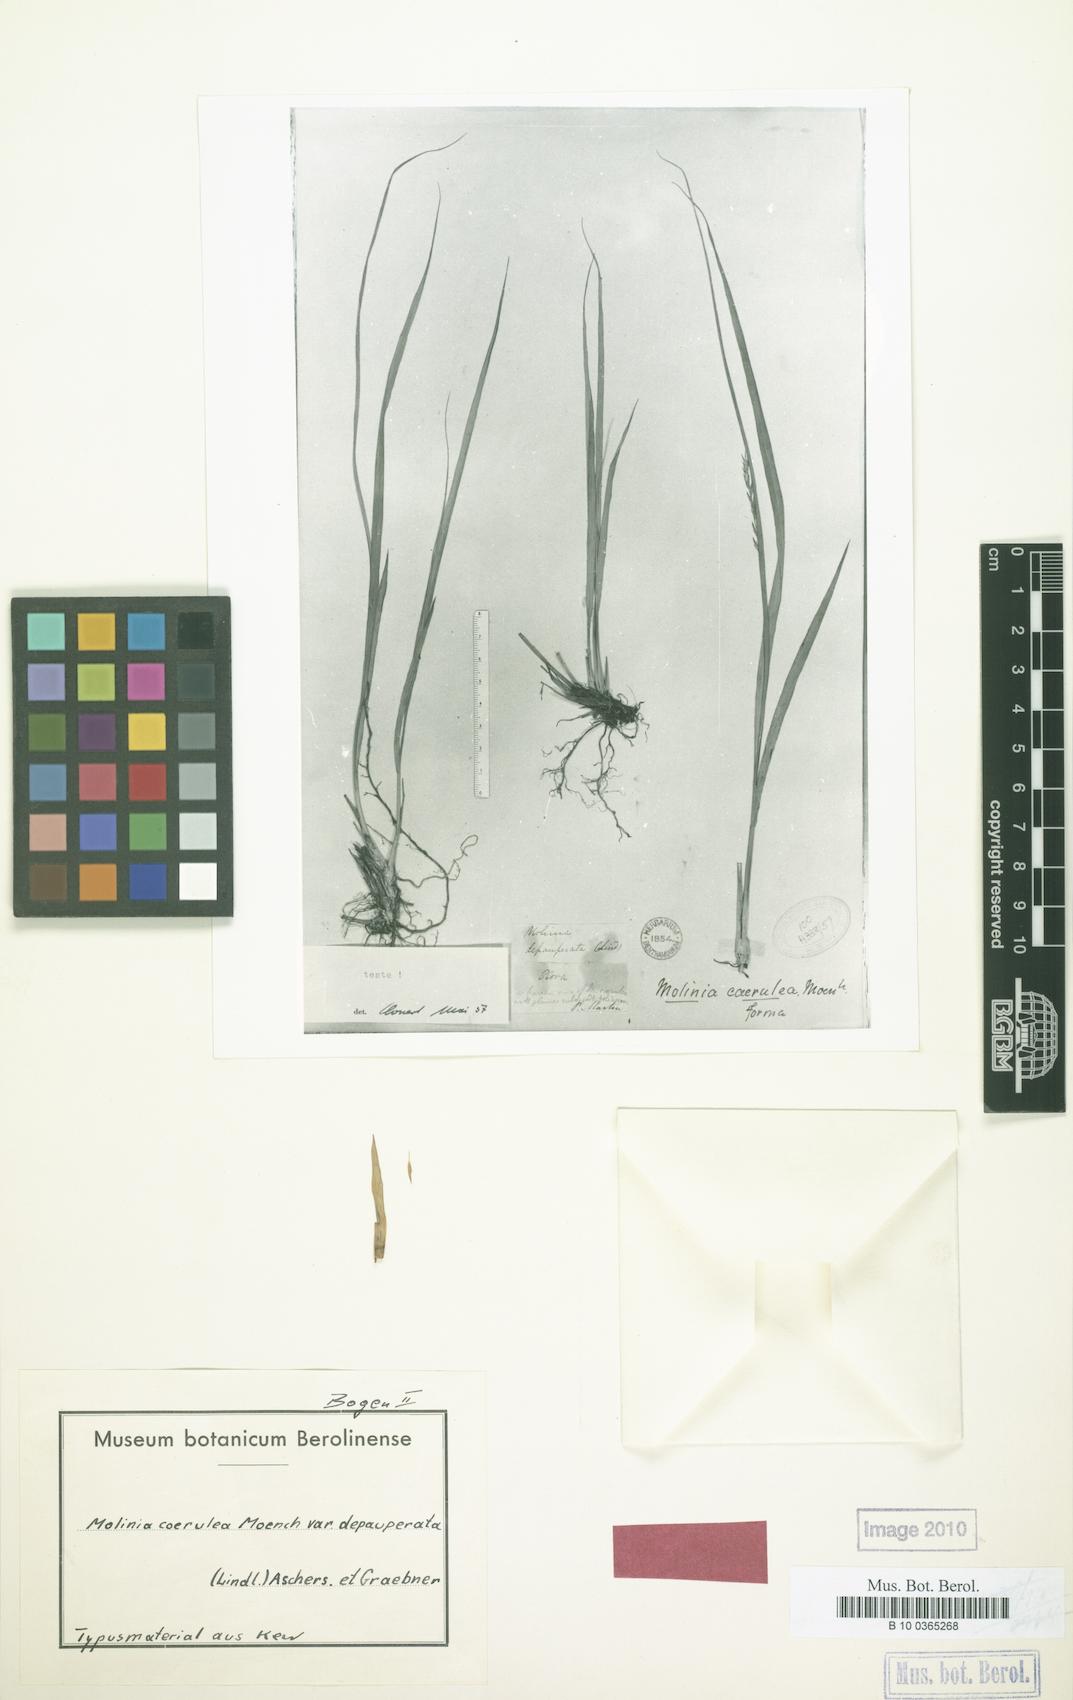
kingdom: Plantae
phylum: Tracheophyta
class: Liliopsida
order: Poales
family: Poaceae
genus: Molinia
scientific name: Molinia caerulea
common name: Purple moor-grass
